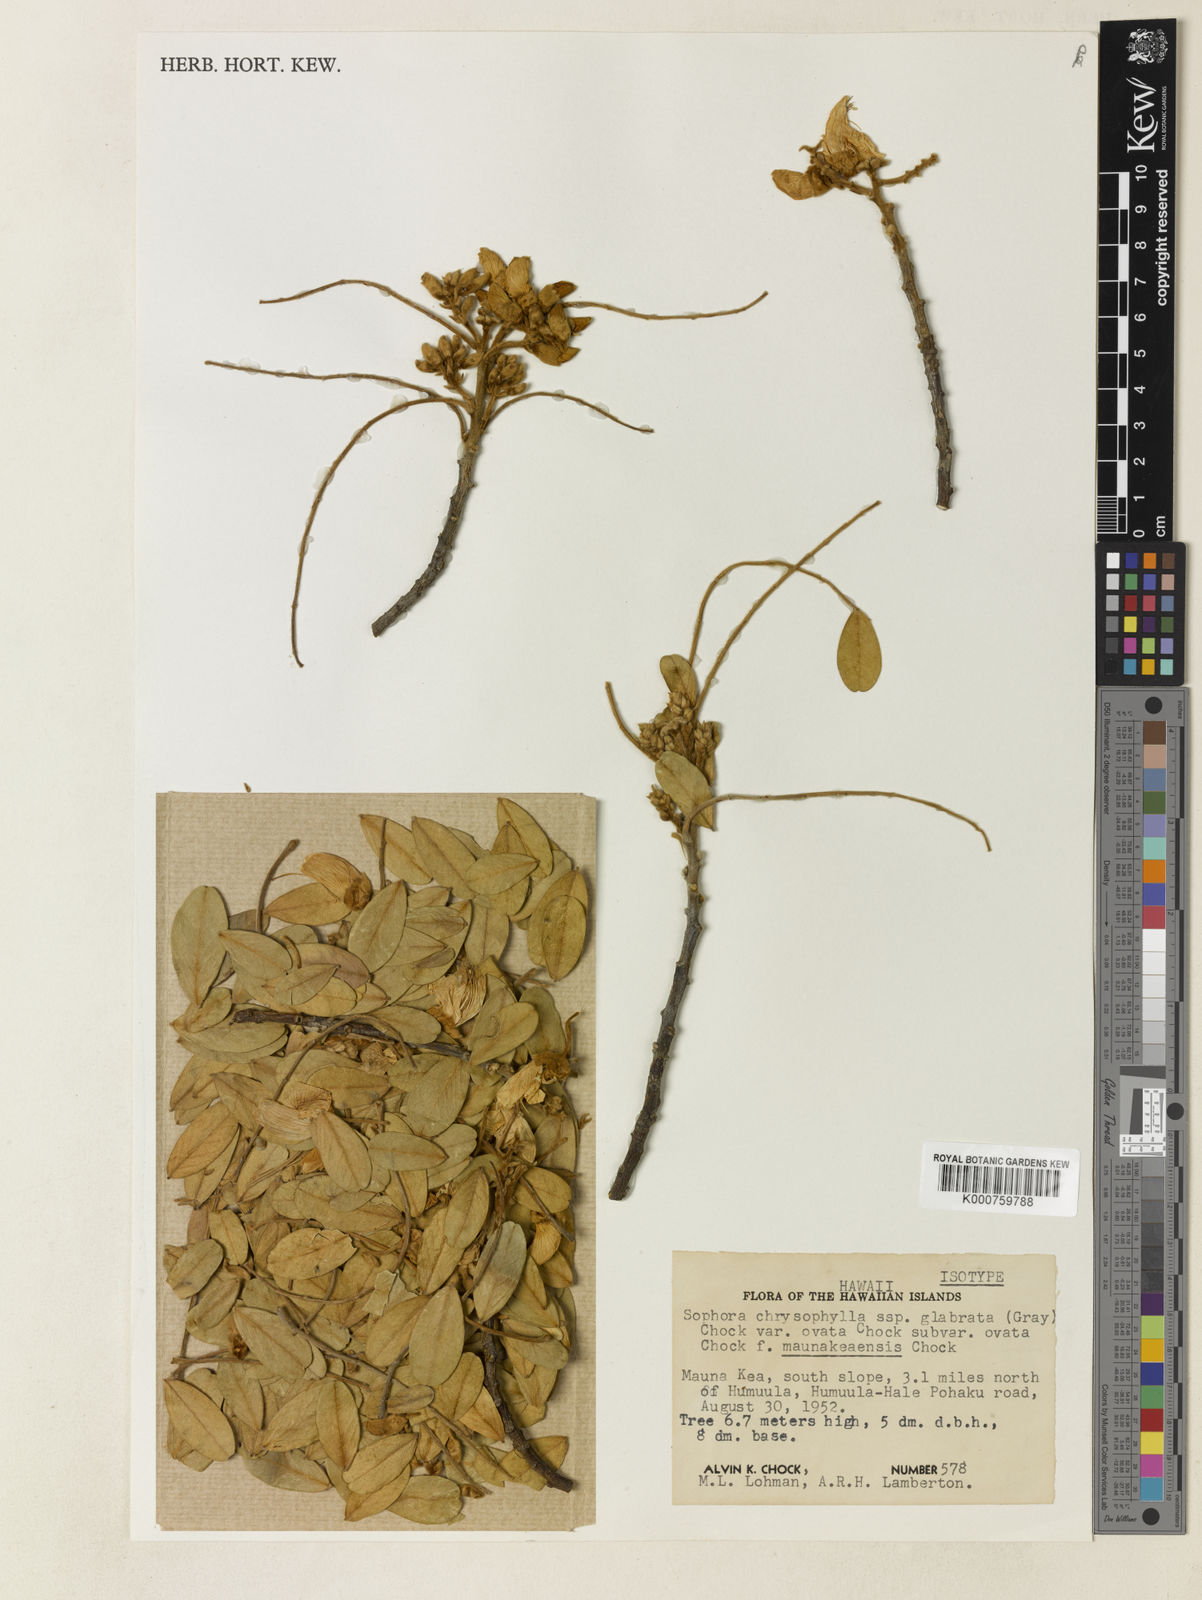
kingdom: Plantae
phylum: Tracheophyta
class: Magnoliopsida
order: Fabales
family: Fabaceae
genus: Sophora
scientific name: Sophora chrysophylla
